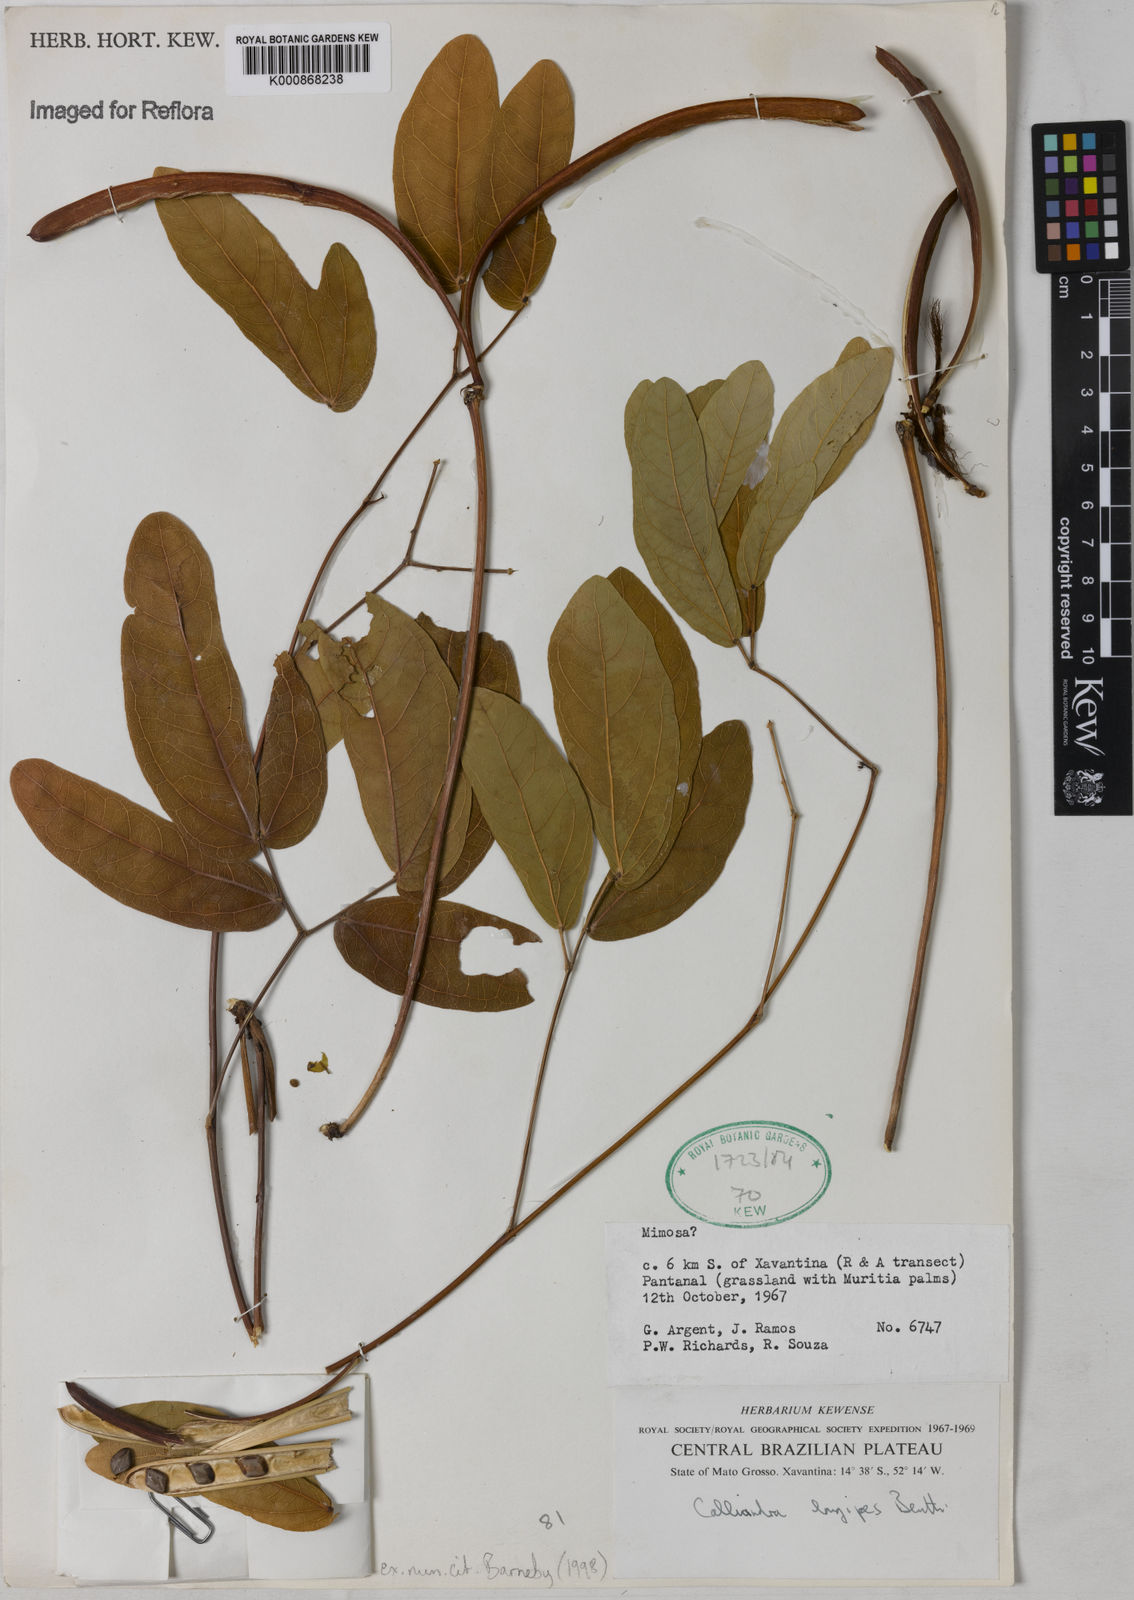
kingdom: Plantae
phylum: Tracheophyta
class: Magnoliopsida
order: Fabales
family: Fabaceae
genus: Calliandra
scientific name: Calliandra longipes
